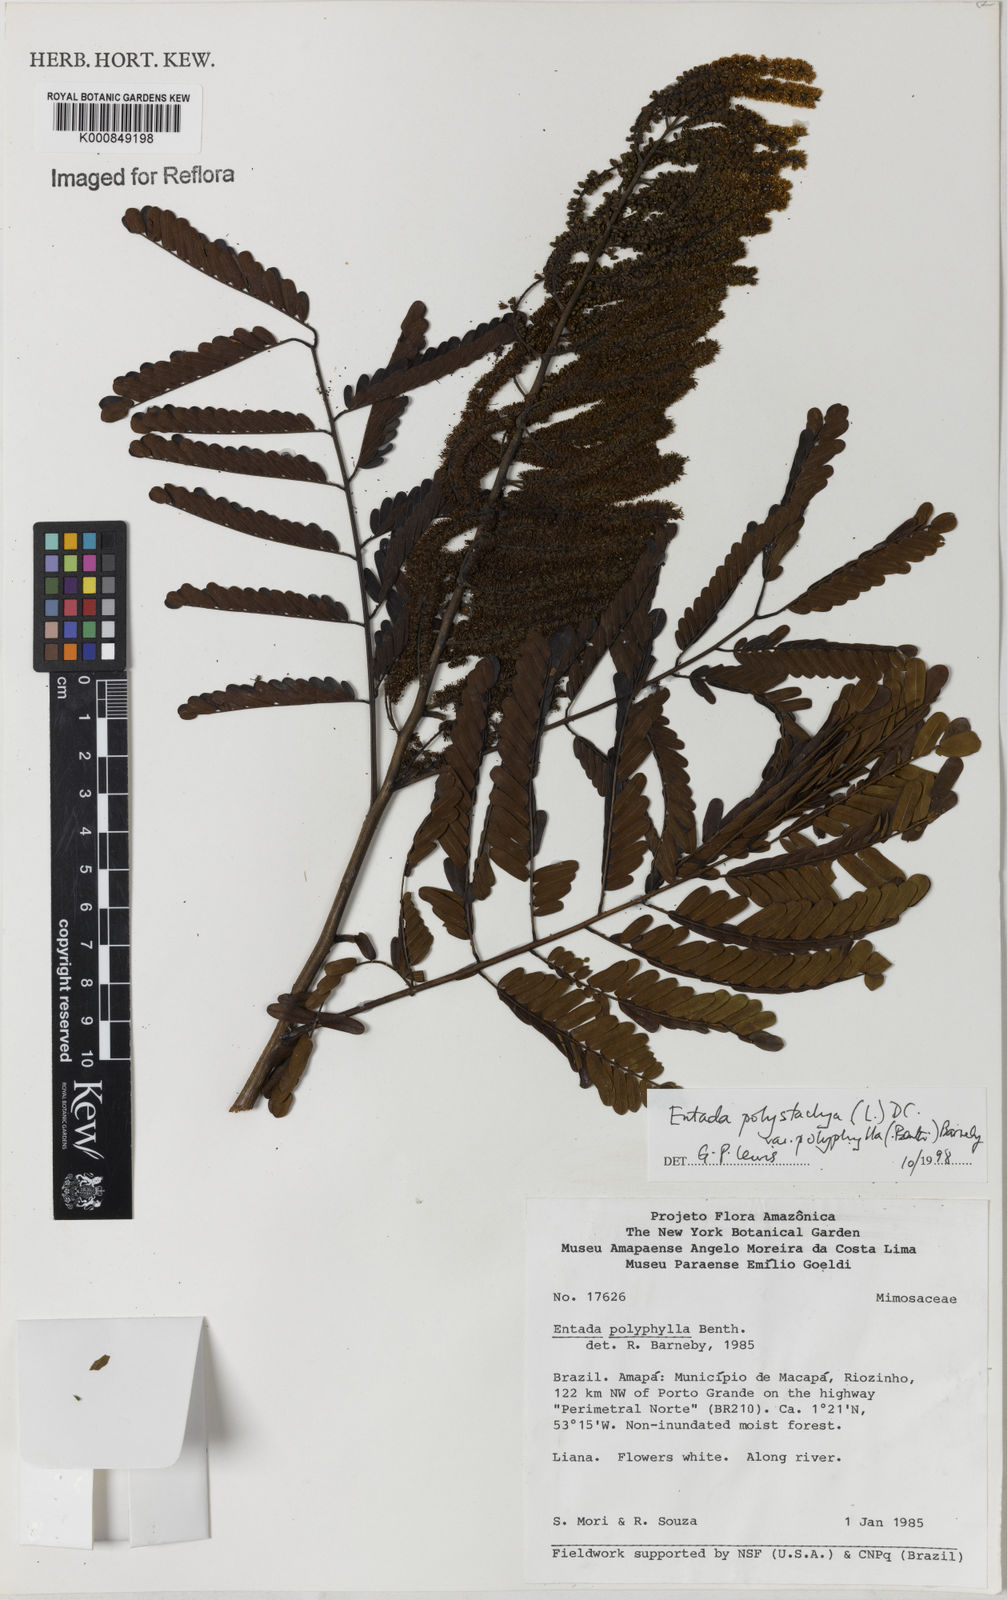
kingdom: Plantae
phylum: Tracheophyta
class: Magnoliopsida
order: Fabales
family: Fabaceae
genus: Entada
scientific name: Entada polyphylla
